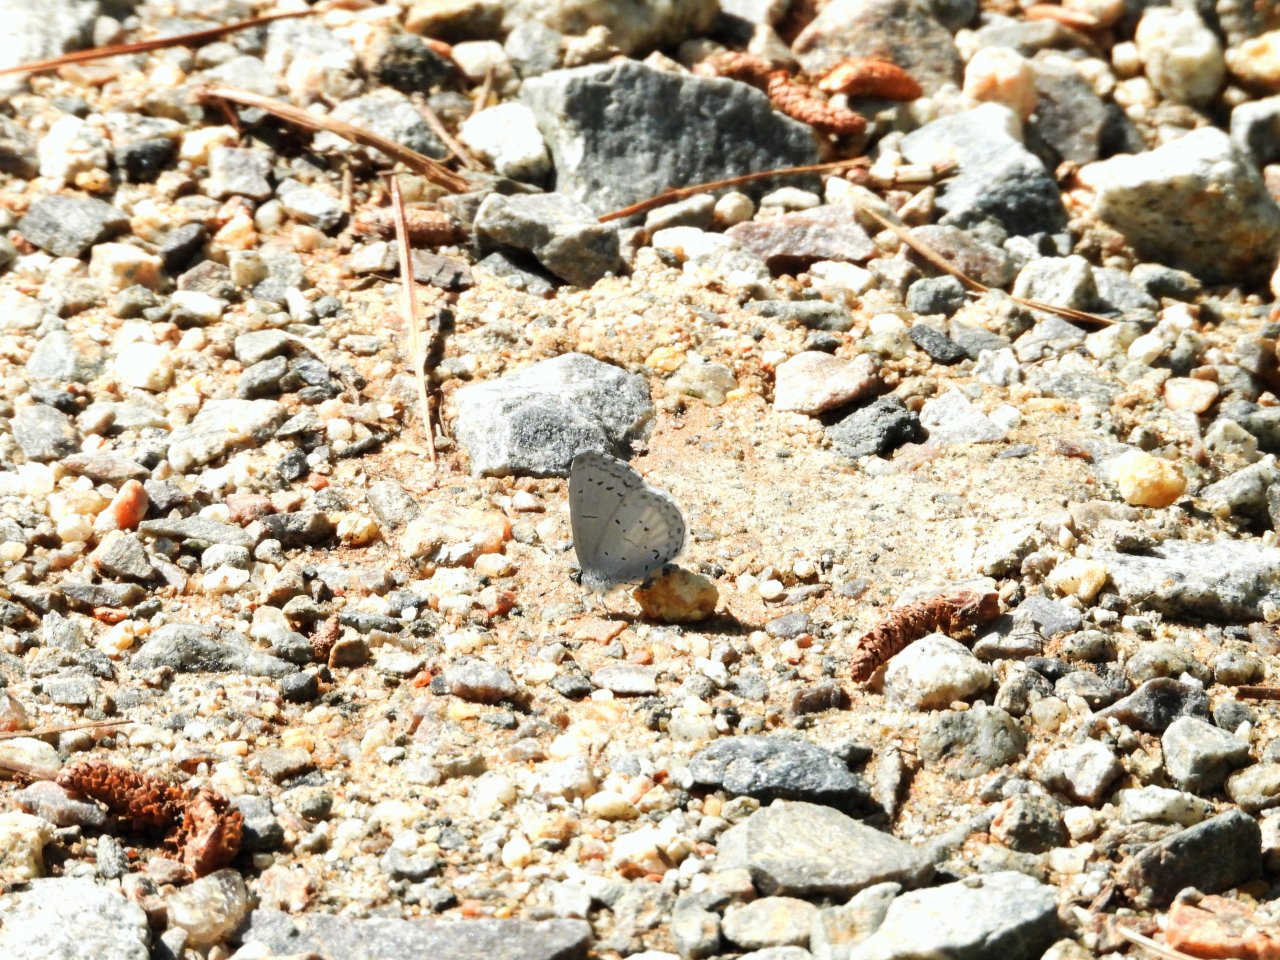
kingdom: Animalia
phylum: Arthropoda
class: Insecta
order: Lepidoptera
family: Lycaenidae
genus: Cyaniris
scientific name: Cyaniris neglecta
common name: Summer Azure
